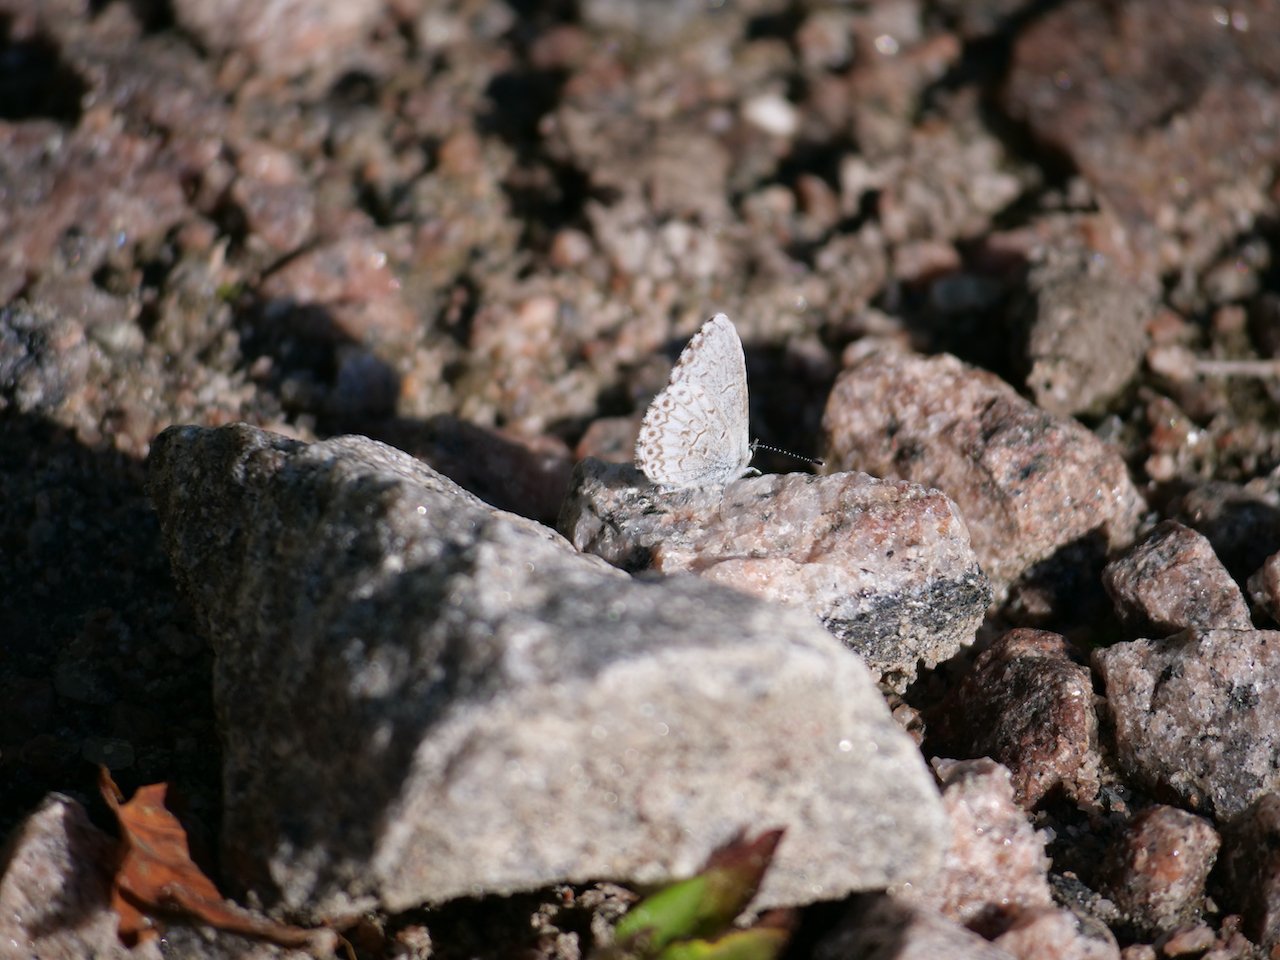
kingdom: Animalia
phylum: Arthropoda
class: Insecta
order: Lepidoptera
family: Lycaenidae
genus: Celastrina
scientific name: Celastrina lucia
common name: Northern Spring Azure
